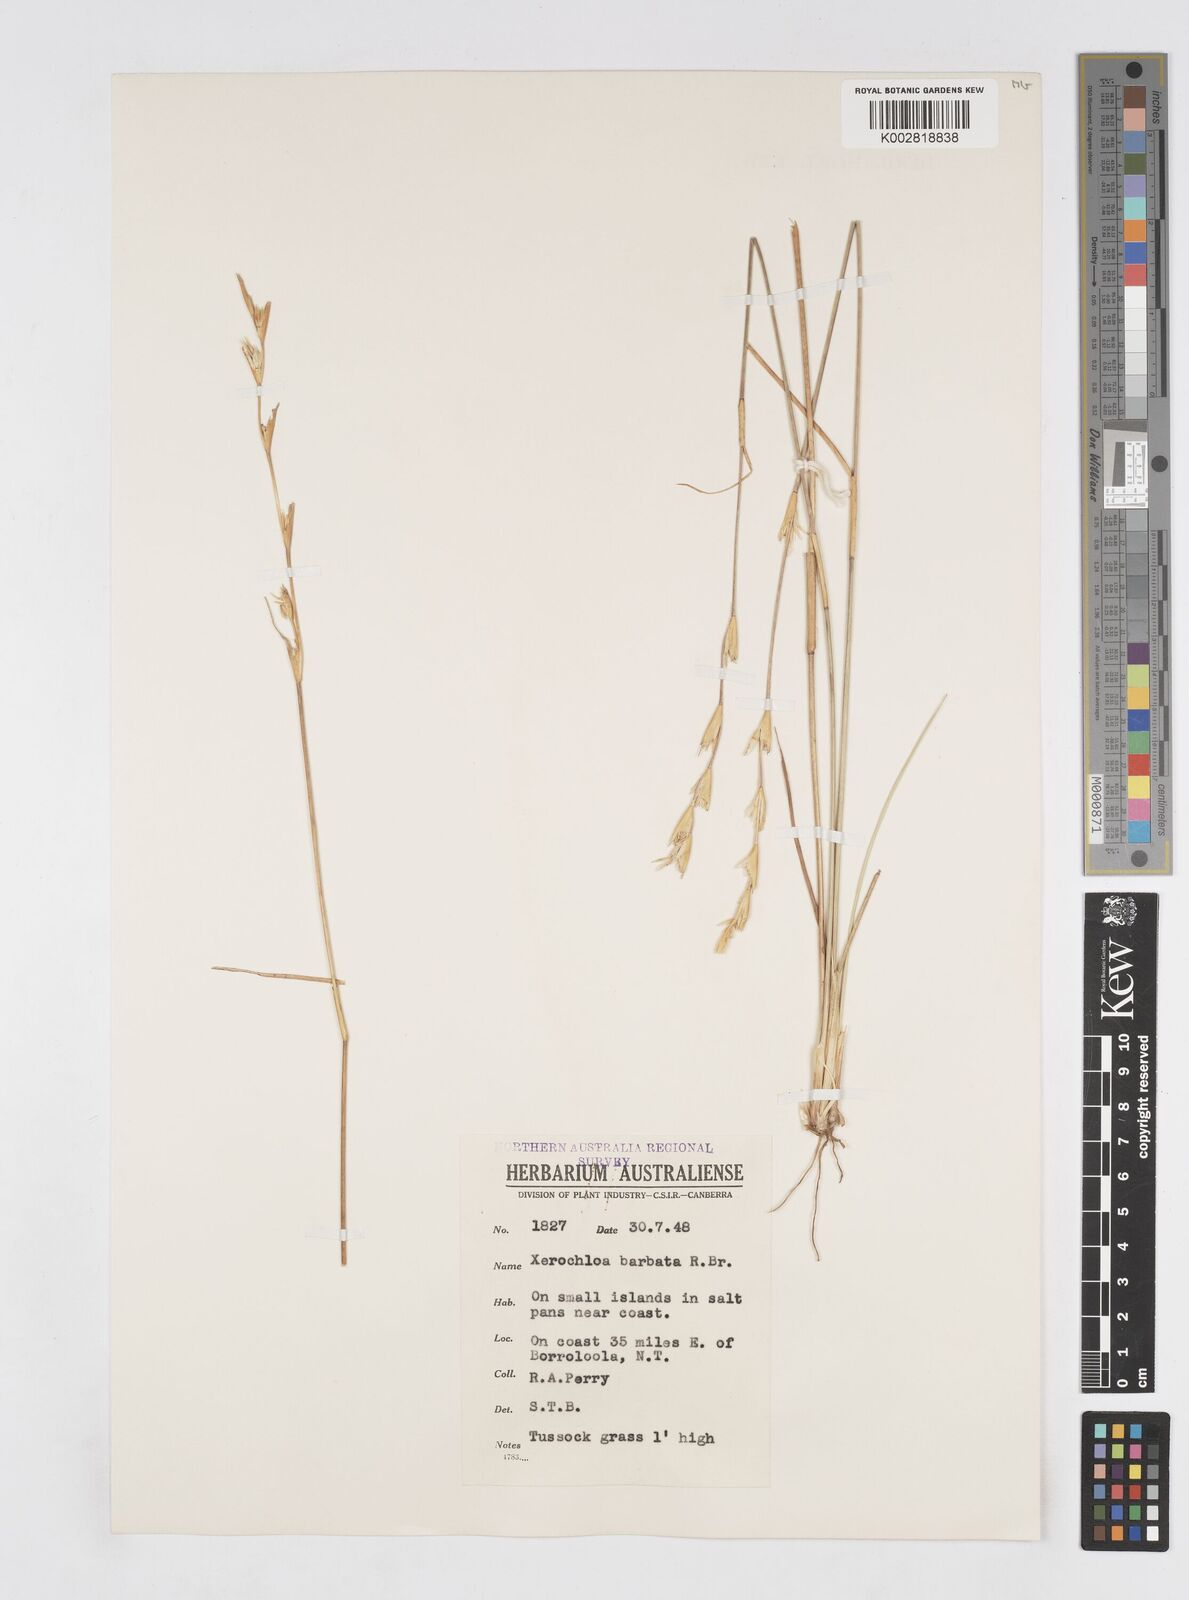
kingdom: Plantae
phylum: Tracheophyta
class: Liliopsida
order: Poales
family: Poaceae
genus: Xerochloa
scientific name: Xerochloa barbata
